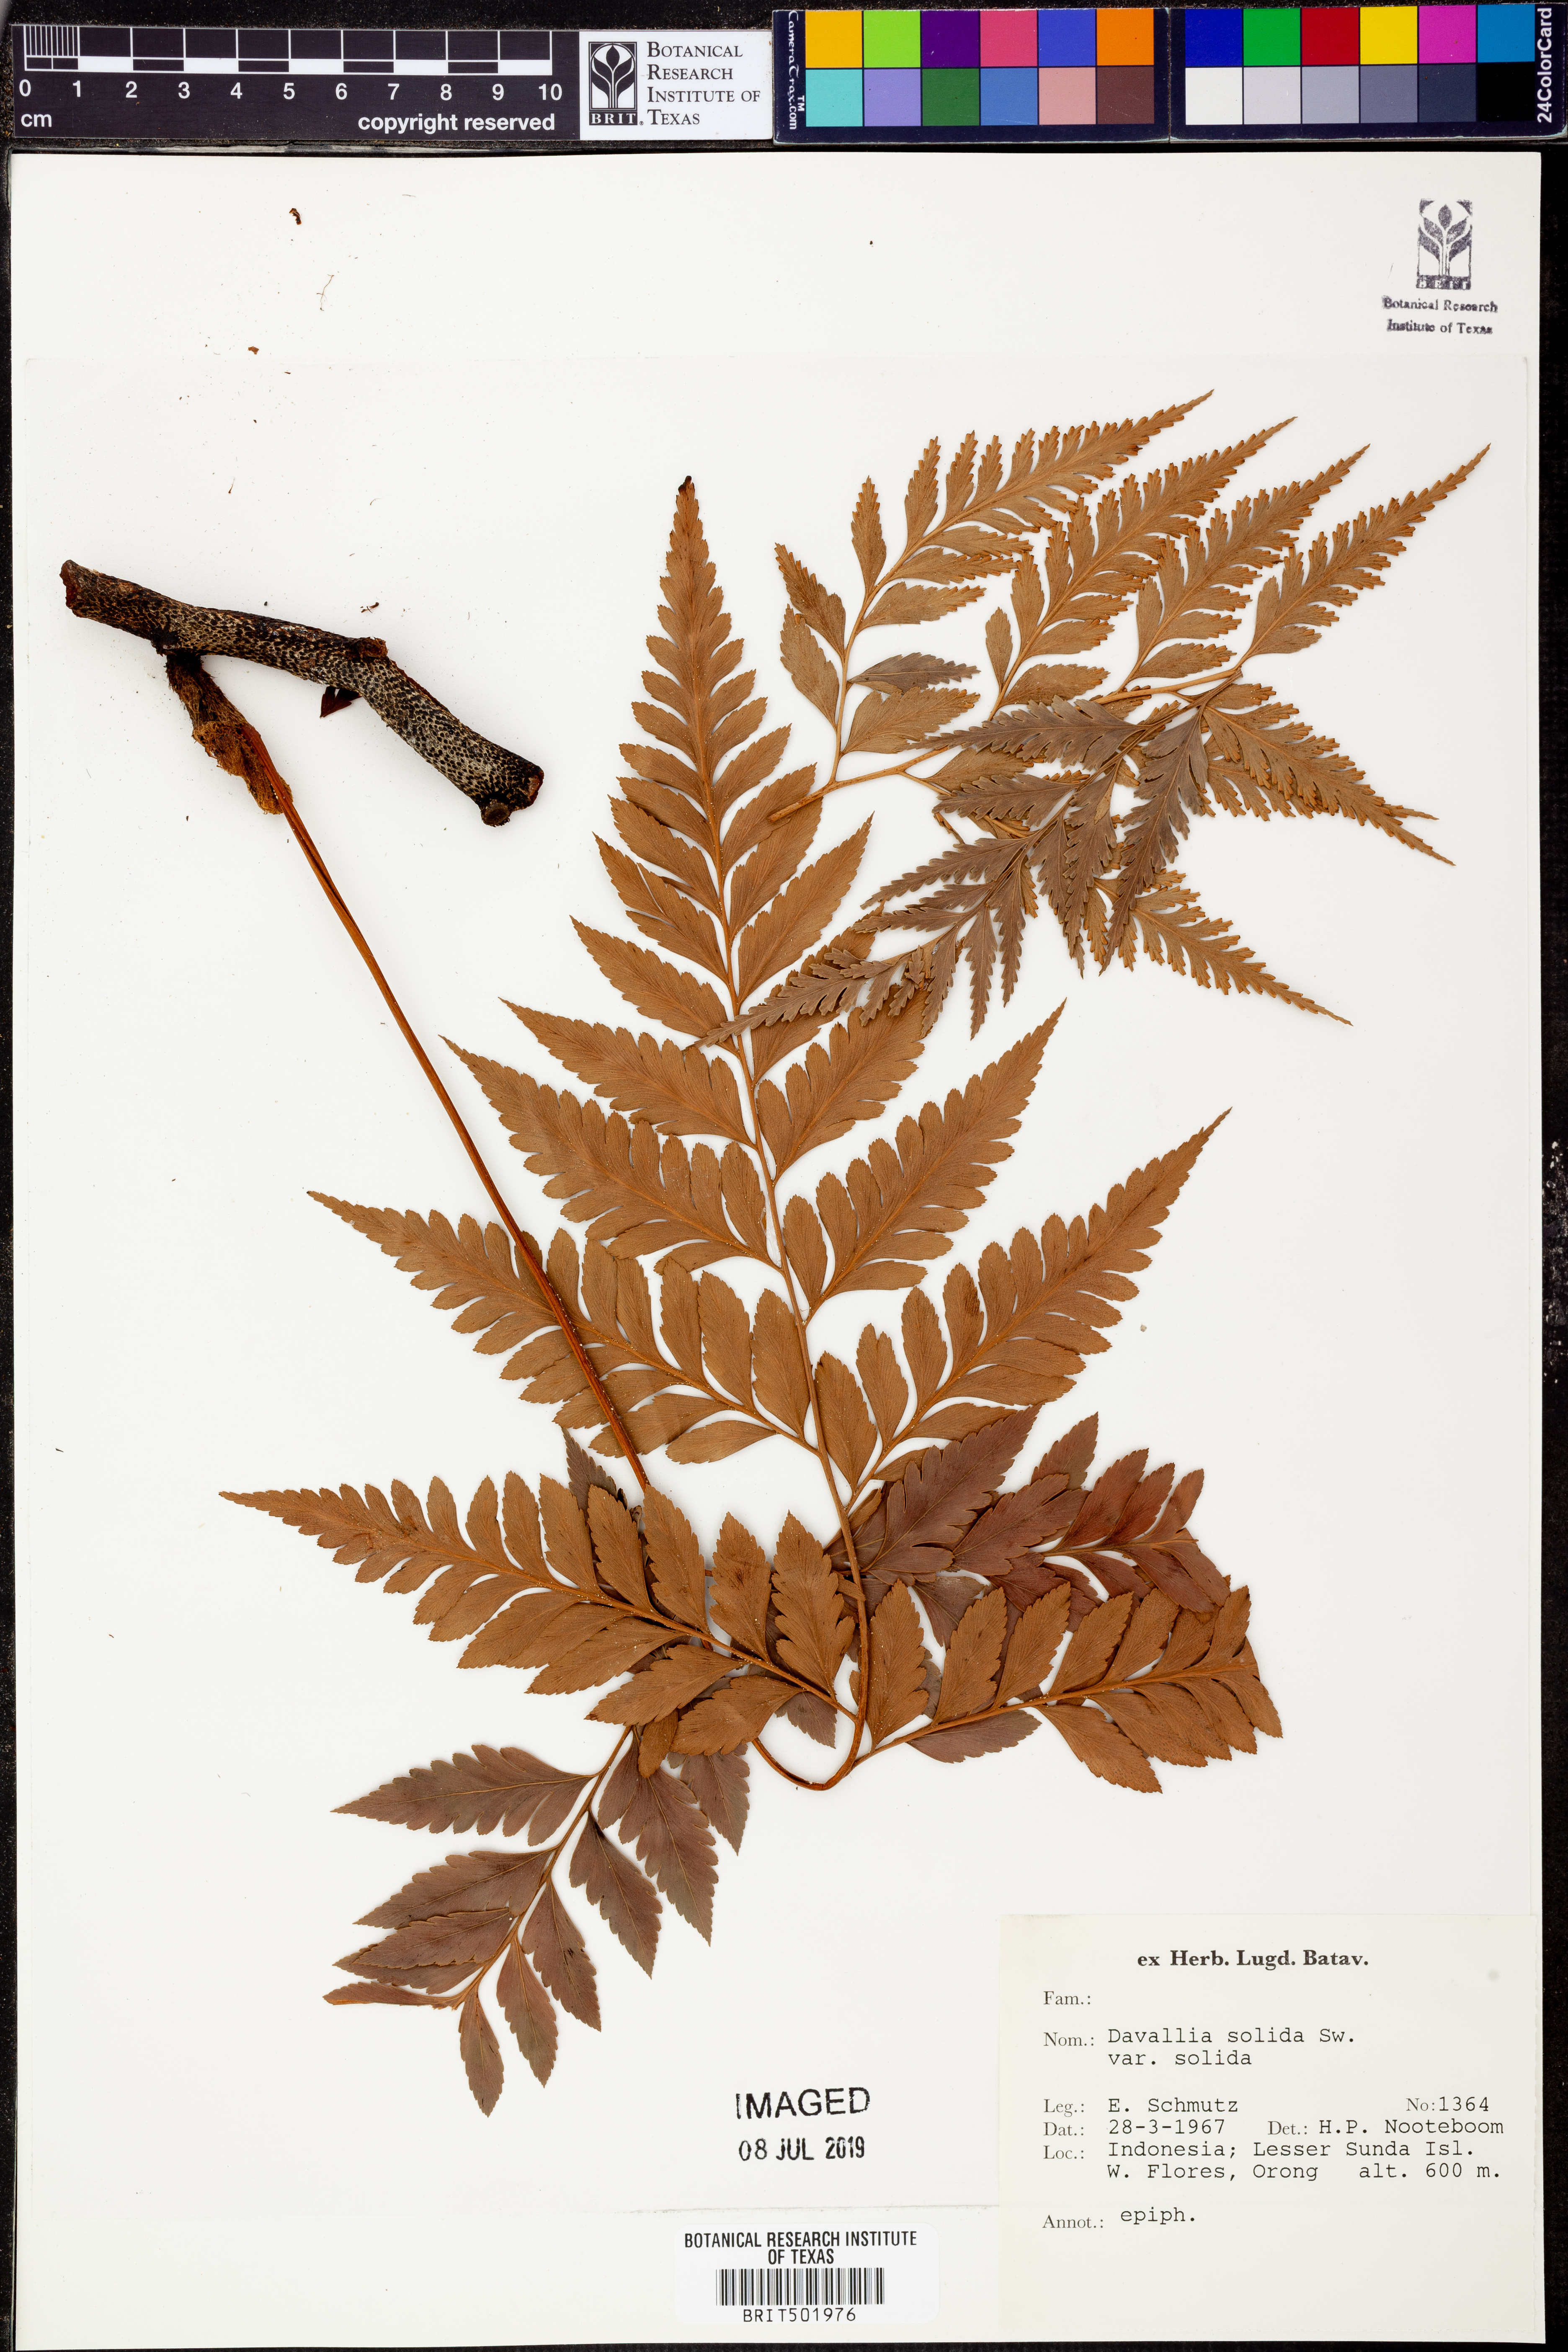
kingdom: Plantae
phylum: Tracheophyta
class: Polypodiopsida
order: Polypodiales
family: Davalliaceae
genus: Davallia
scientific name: Davallia solida
